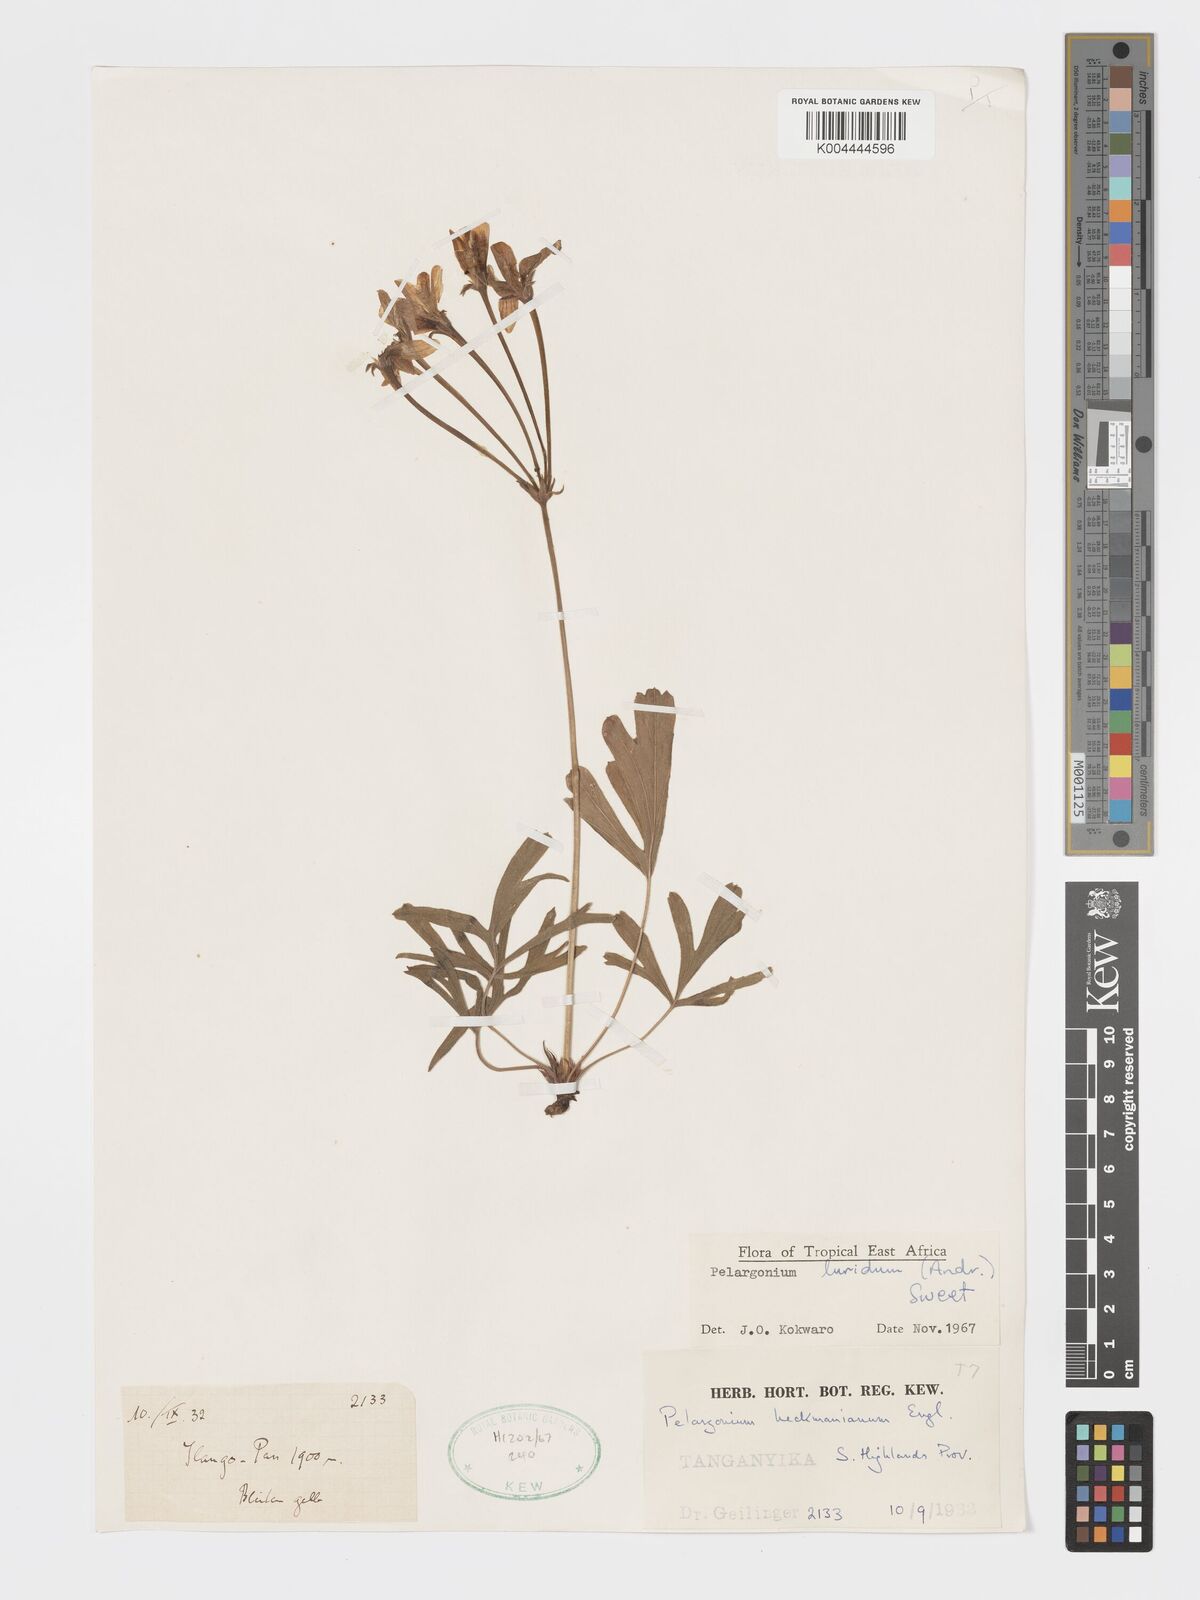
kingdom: Plantae
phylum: Tracheophyta
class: Magnoliopsida
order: Geraniales
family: Geraniaceae
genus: Pelargonium
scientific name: Pelargonium luridum
